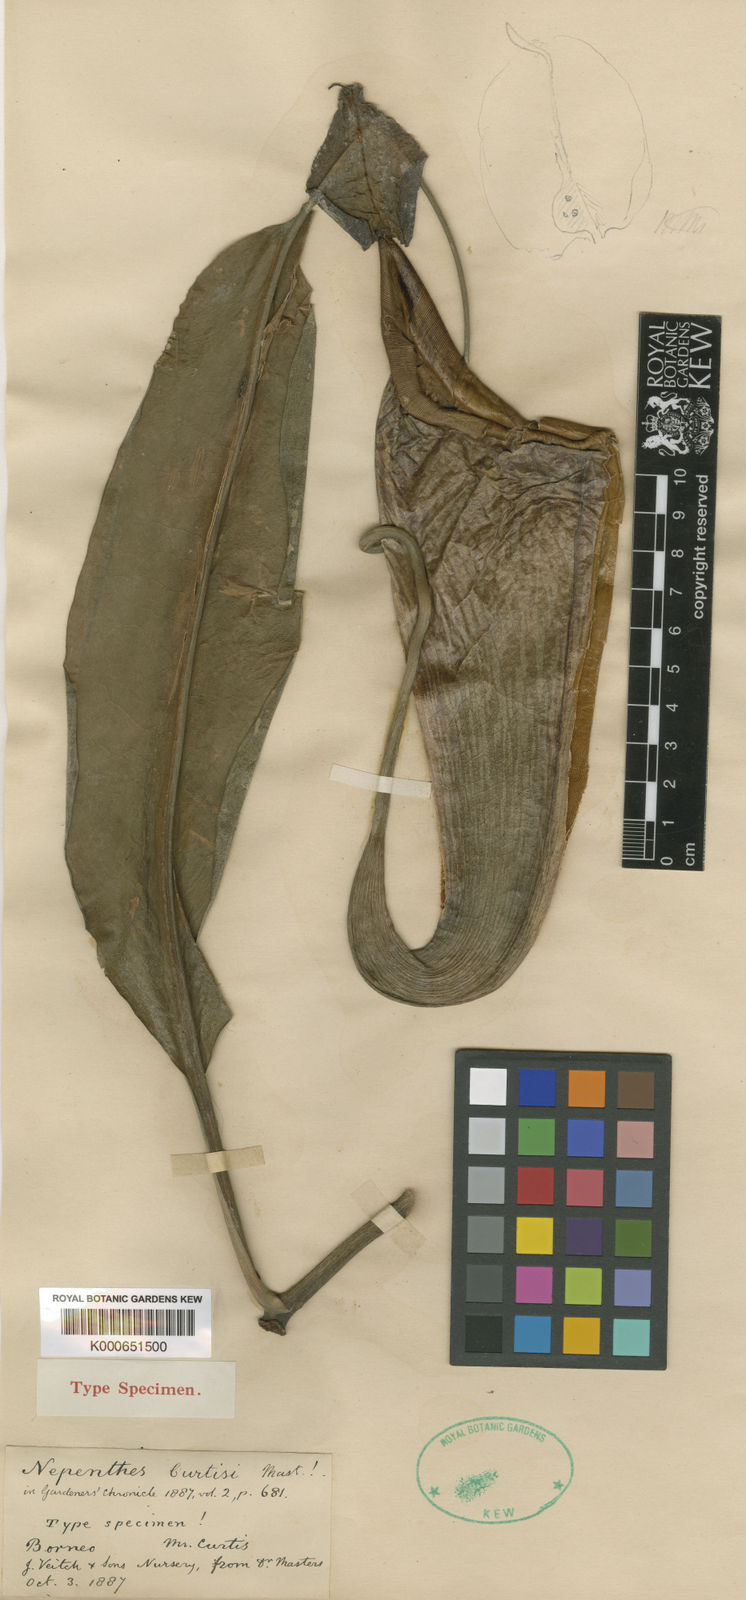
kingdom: Plantae
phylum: Tracheophyta
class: Magnoliopsida
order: Caryophyllales
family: Nepenthaceae
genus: Nepenthes
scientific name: Nepenthes maxima
